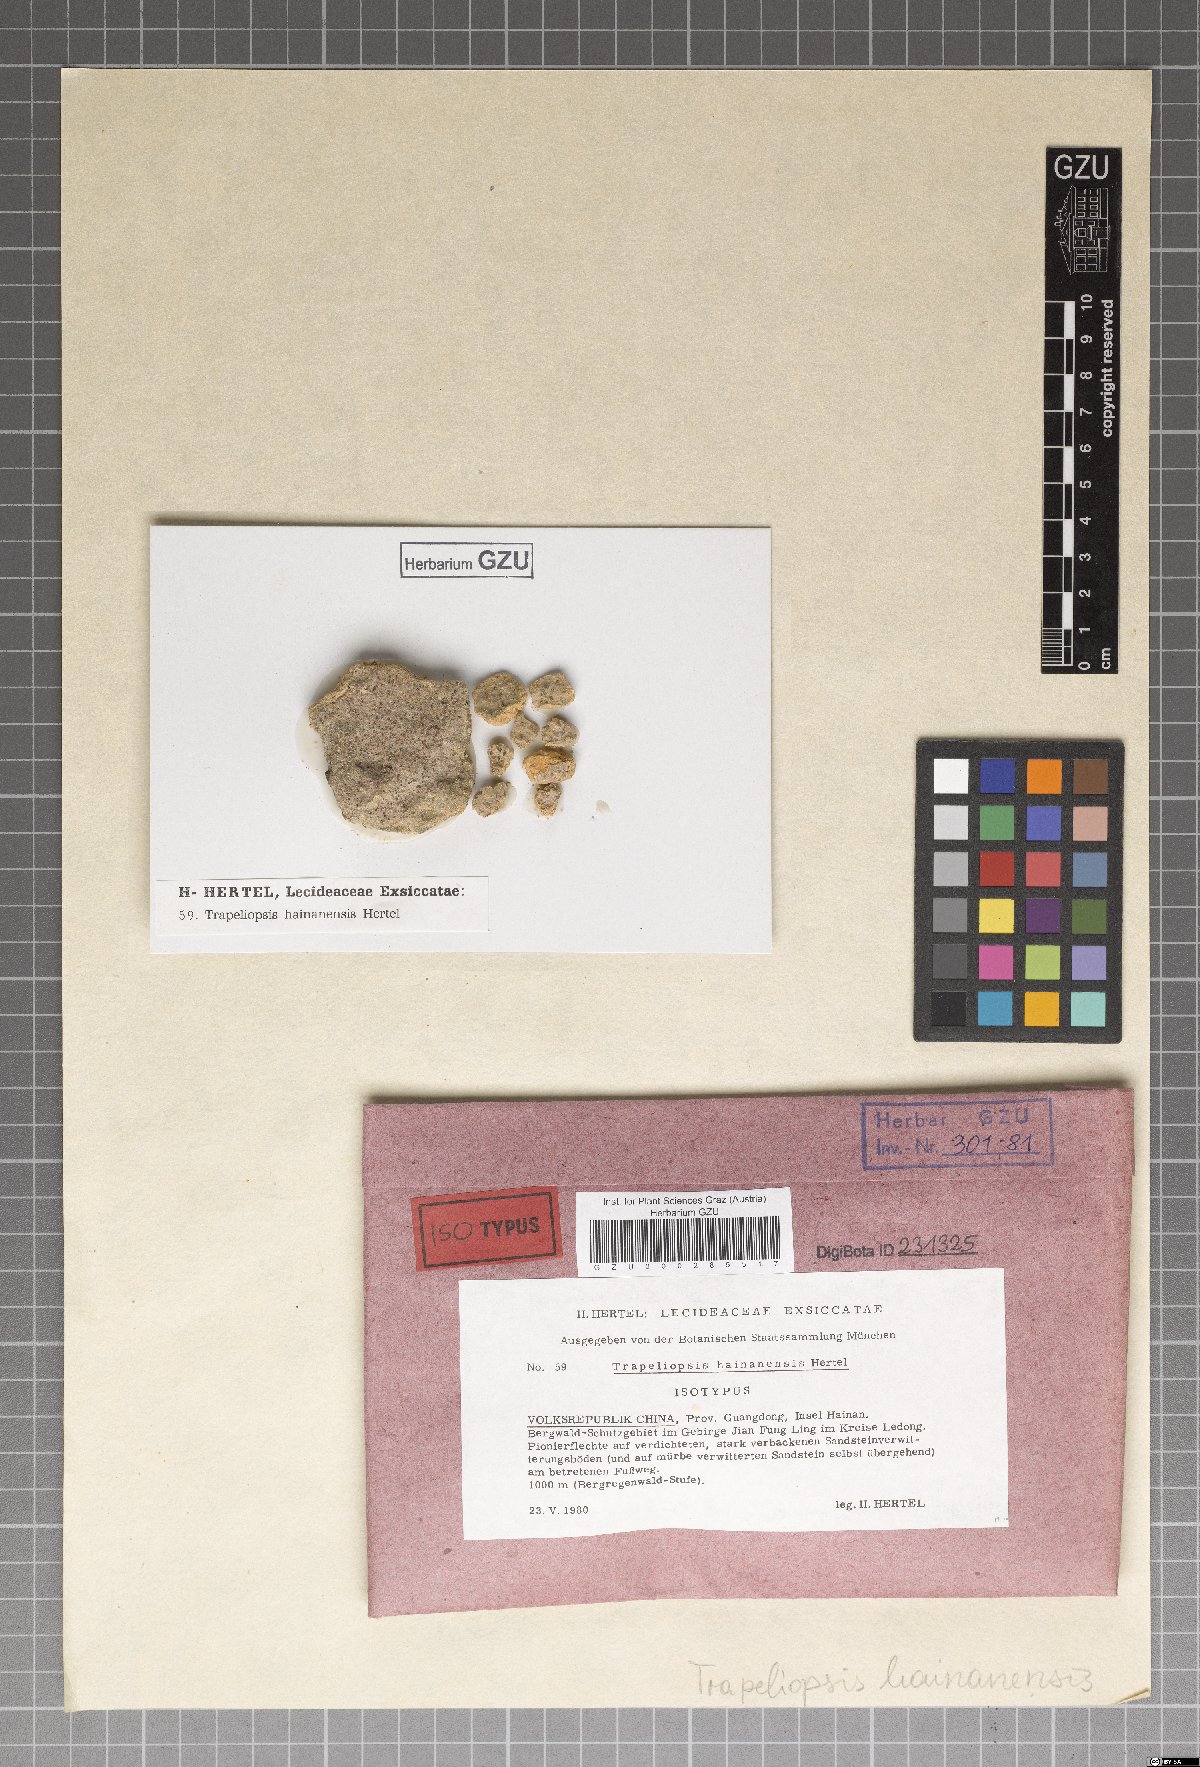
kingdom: Fungi
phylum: Ascomycota
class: Lecanoromycetes
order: Baeomycetales
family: Trapeliaceae
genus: Trapeliopsis
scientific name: Trapeliopsis
